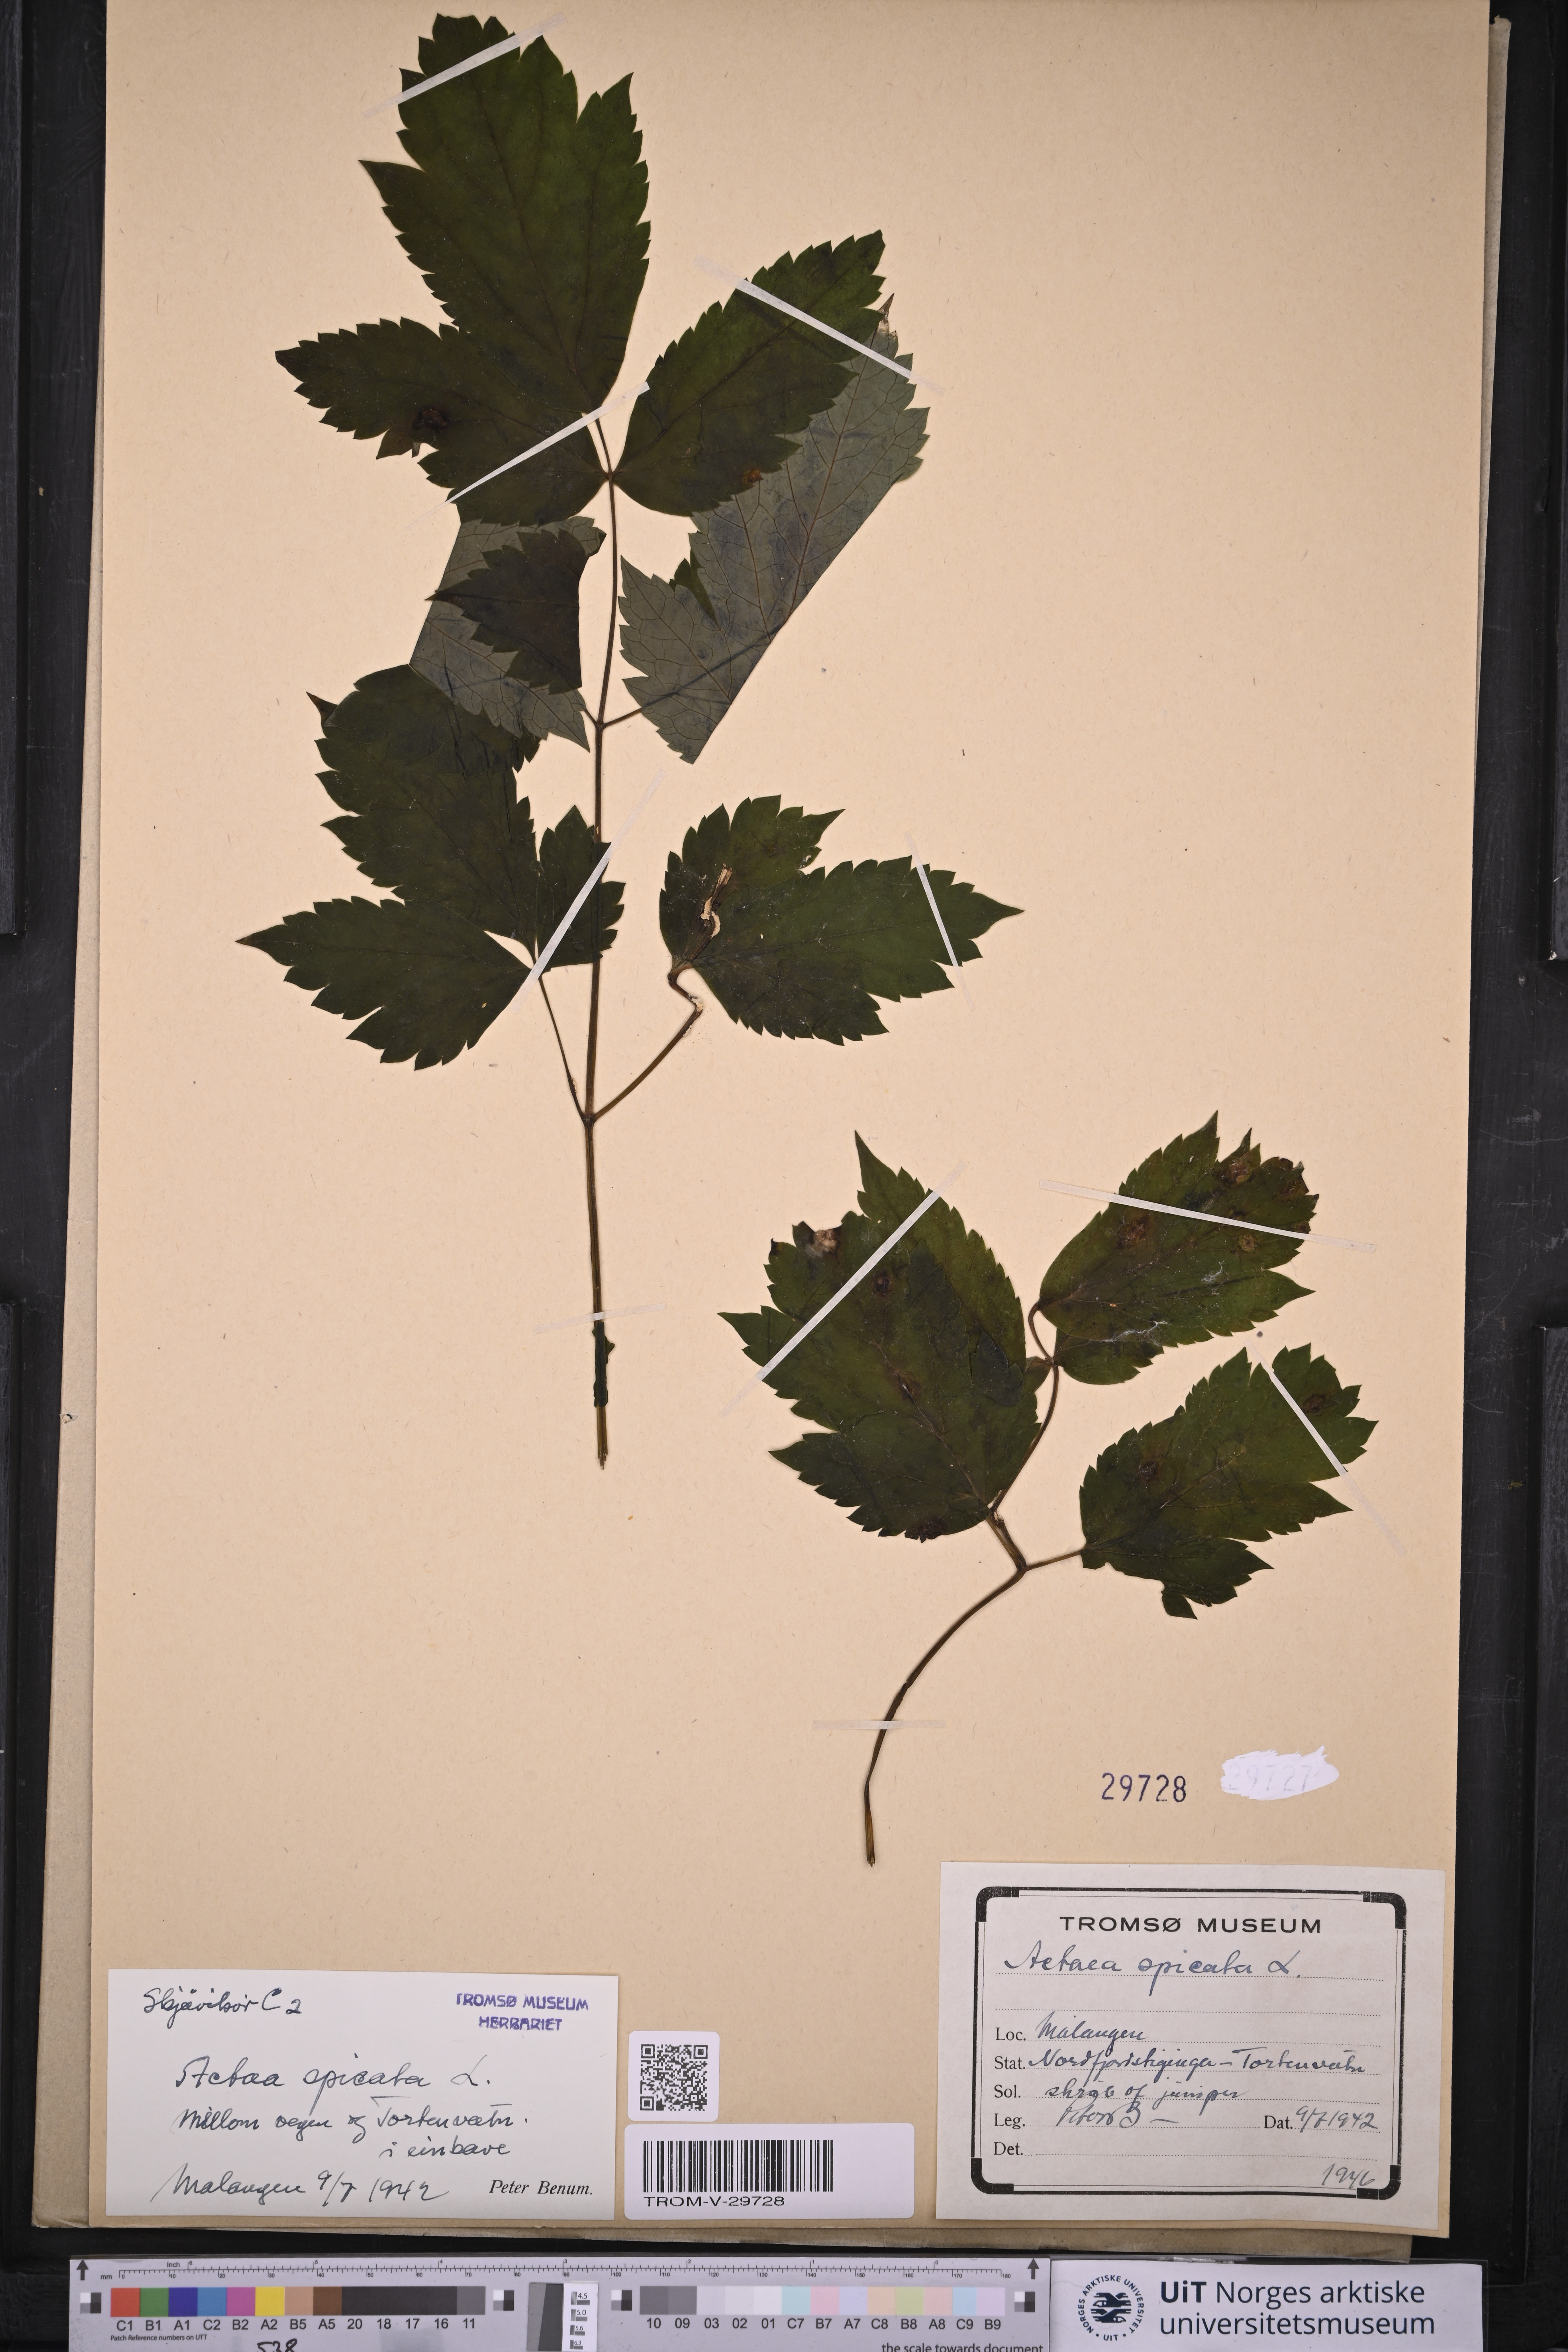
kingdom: Plantae
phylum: Tracheophyta
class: Magnoliopsida
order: Ranunculales
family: Ranunculaceae
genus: Actaea
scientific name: Actaea spicata
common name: Baneberry
